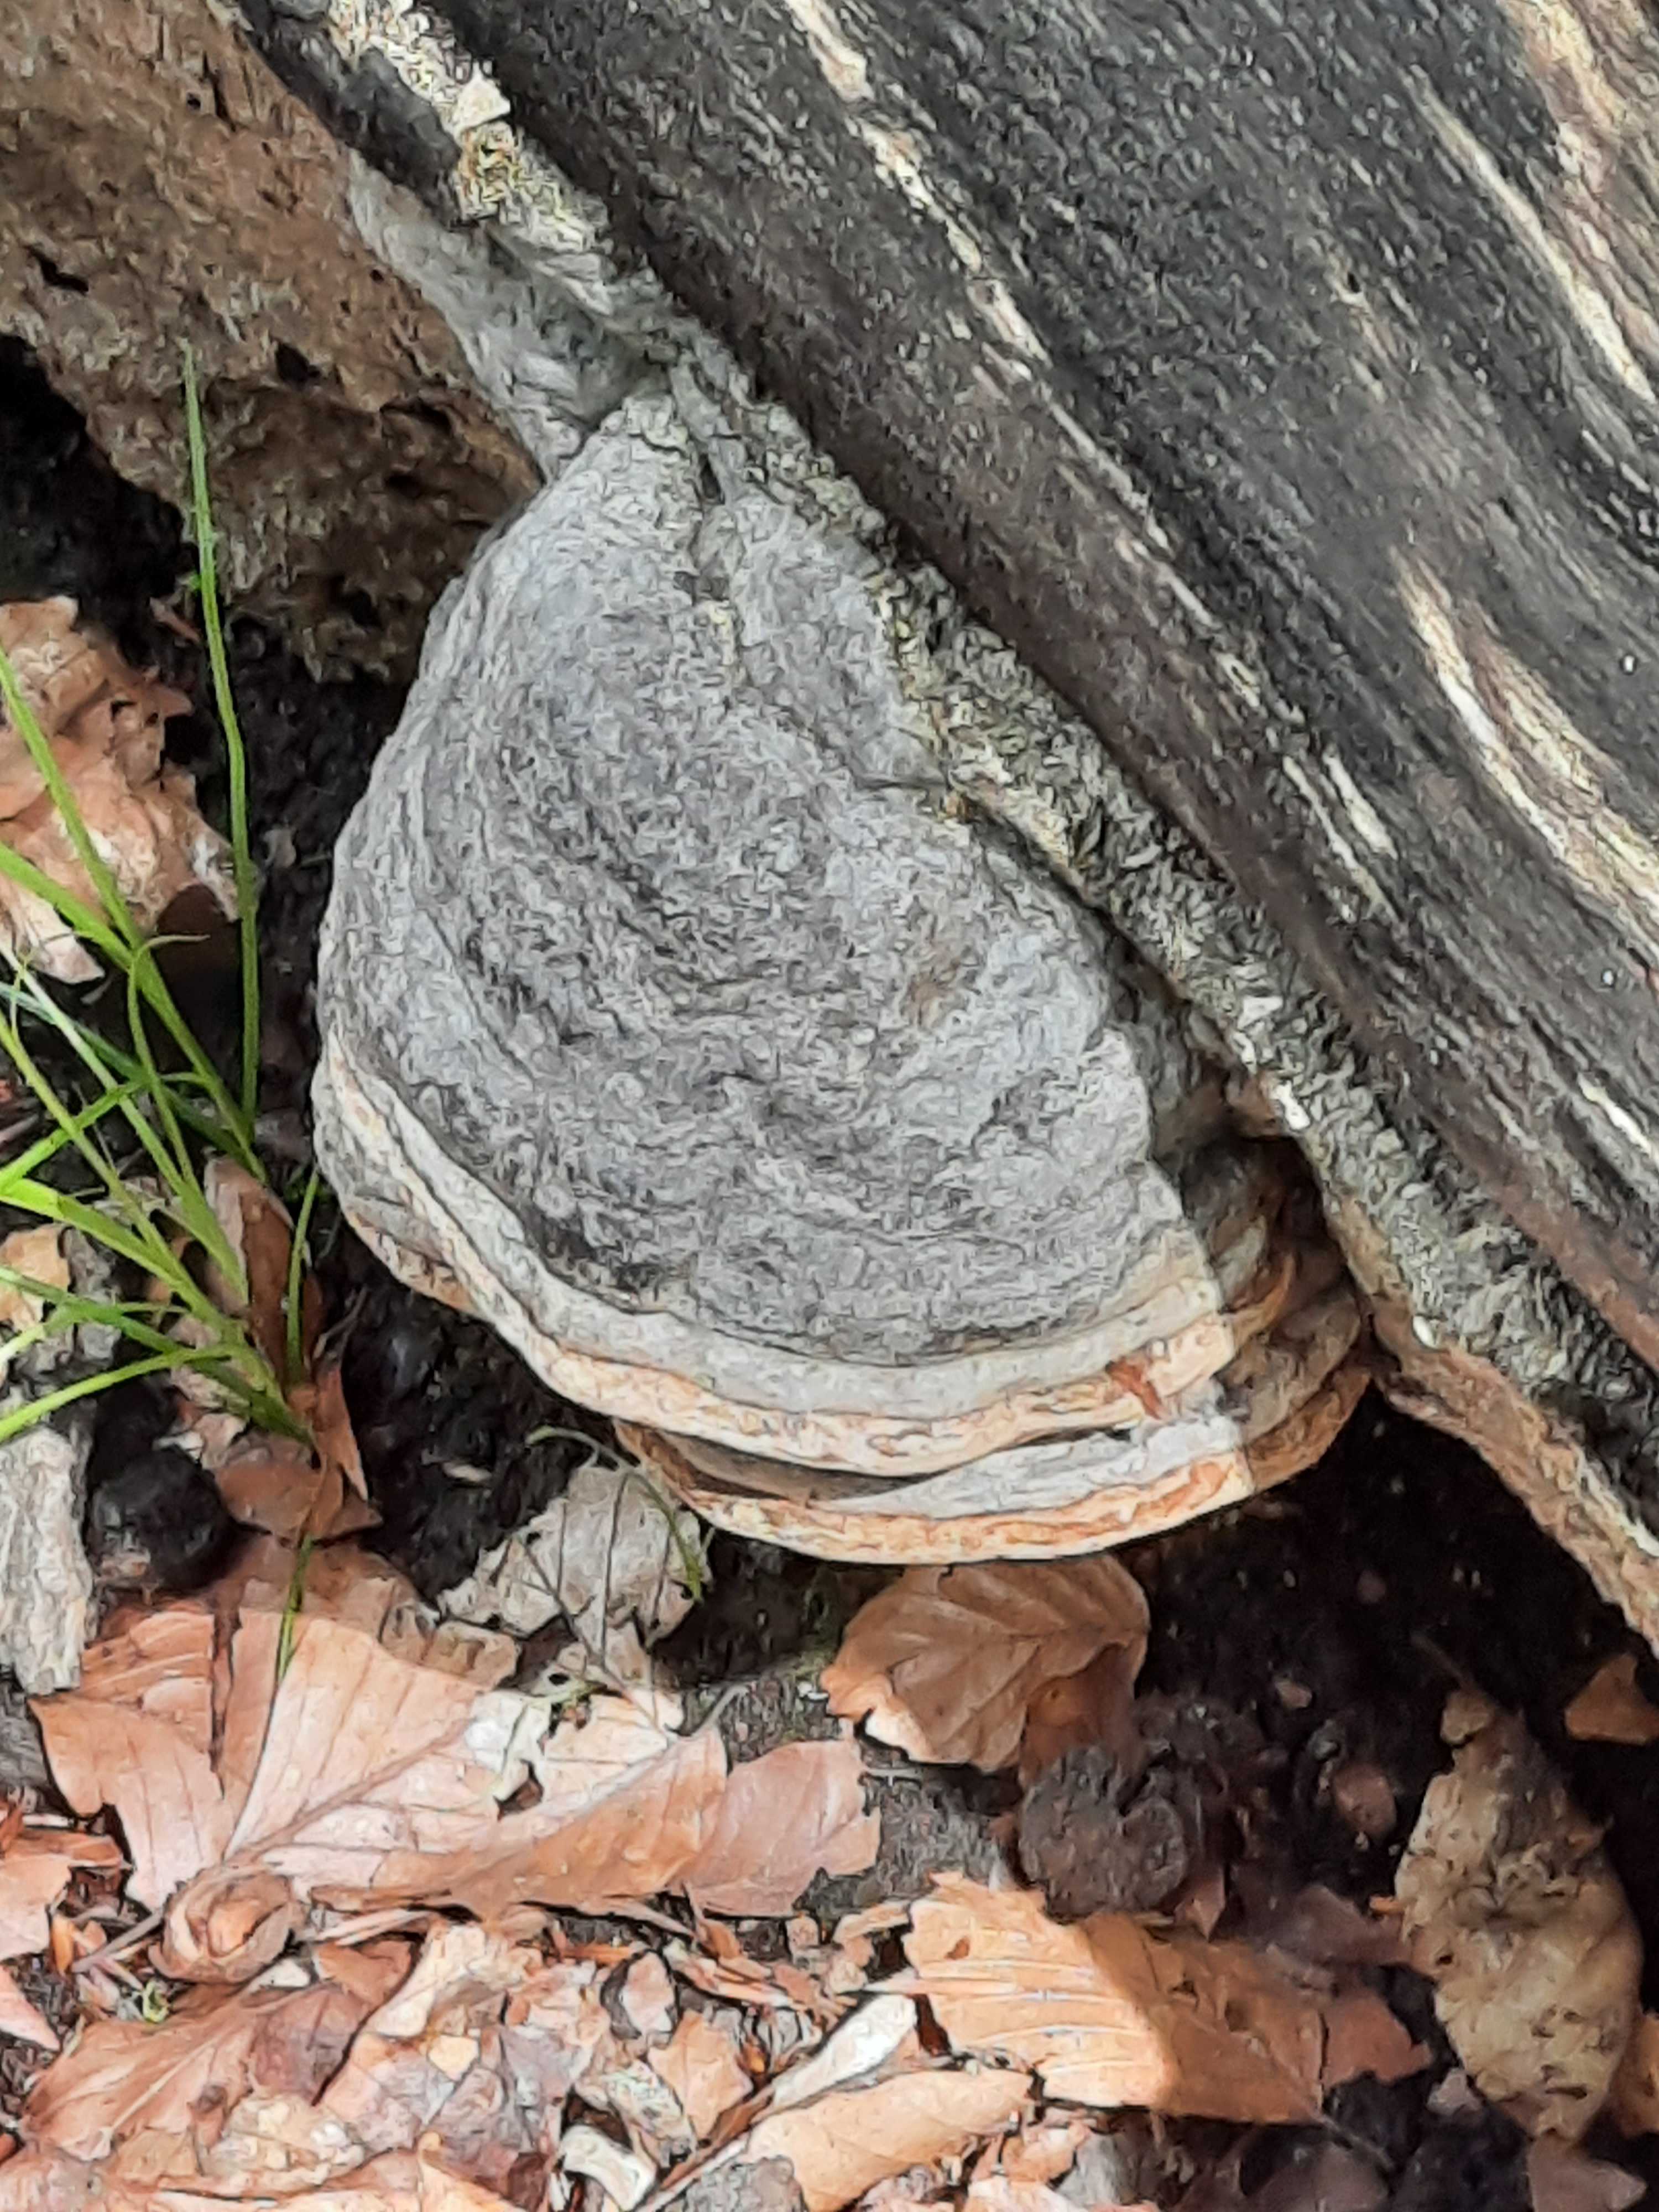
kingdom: Fungi
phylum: Basidiomycota
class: Agaricomycetes
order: Polyporales
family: Polyporaceae
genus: Fomes
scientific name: Fomes fomentarius
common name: tøndersvamp
